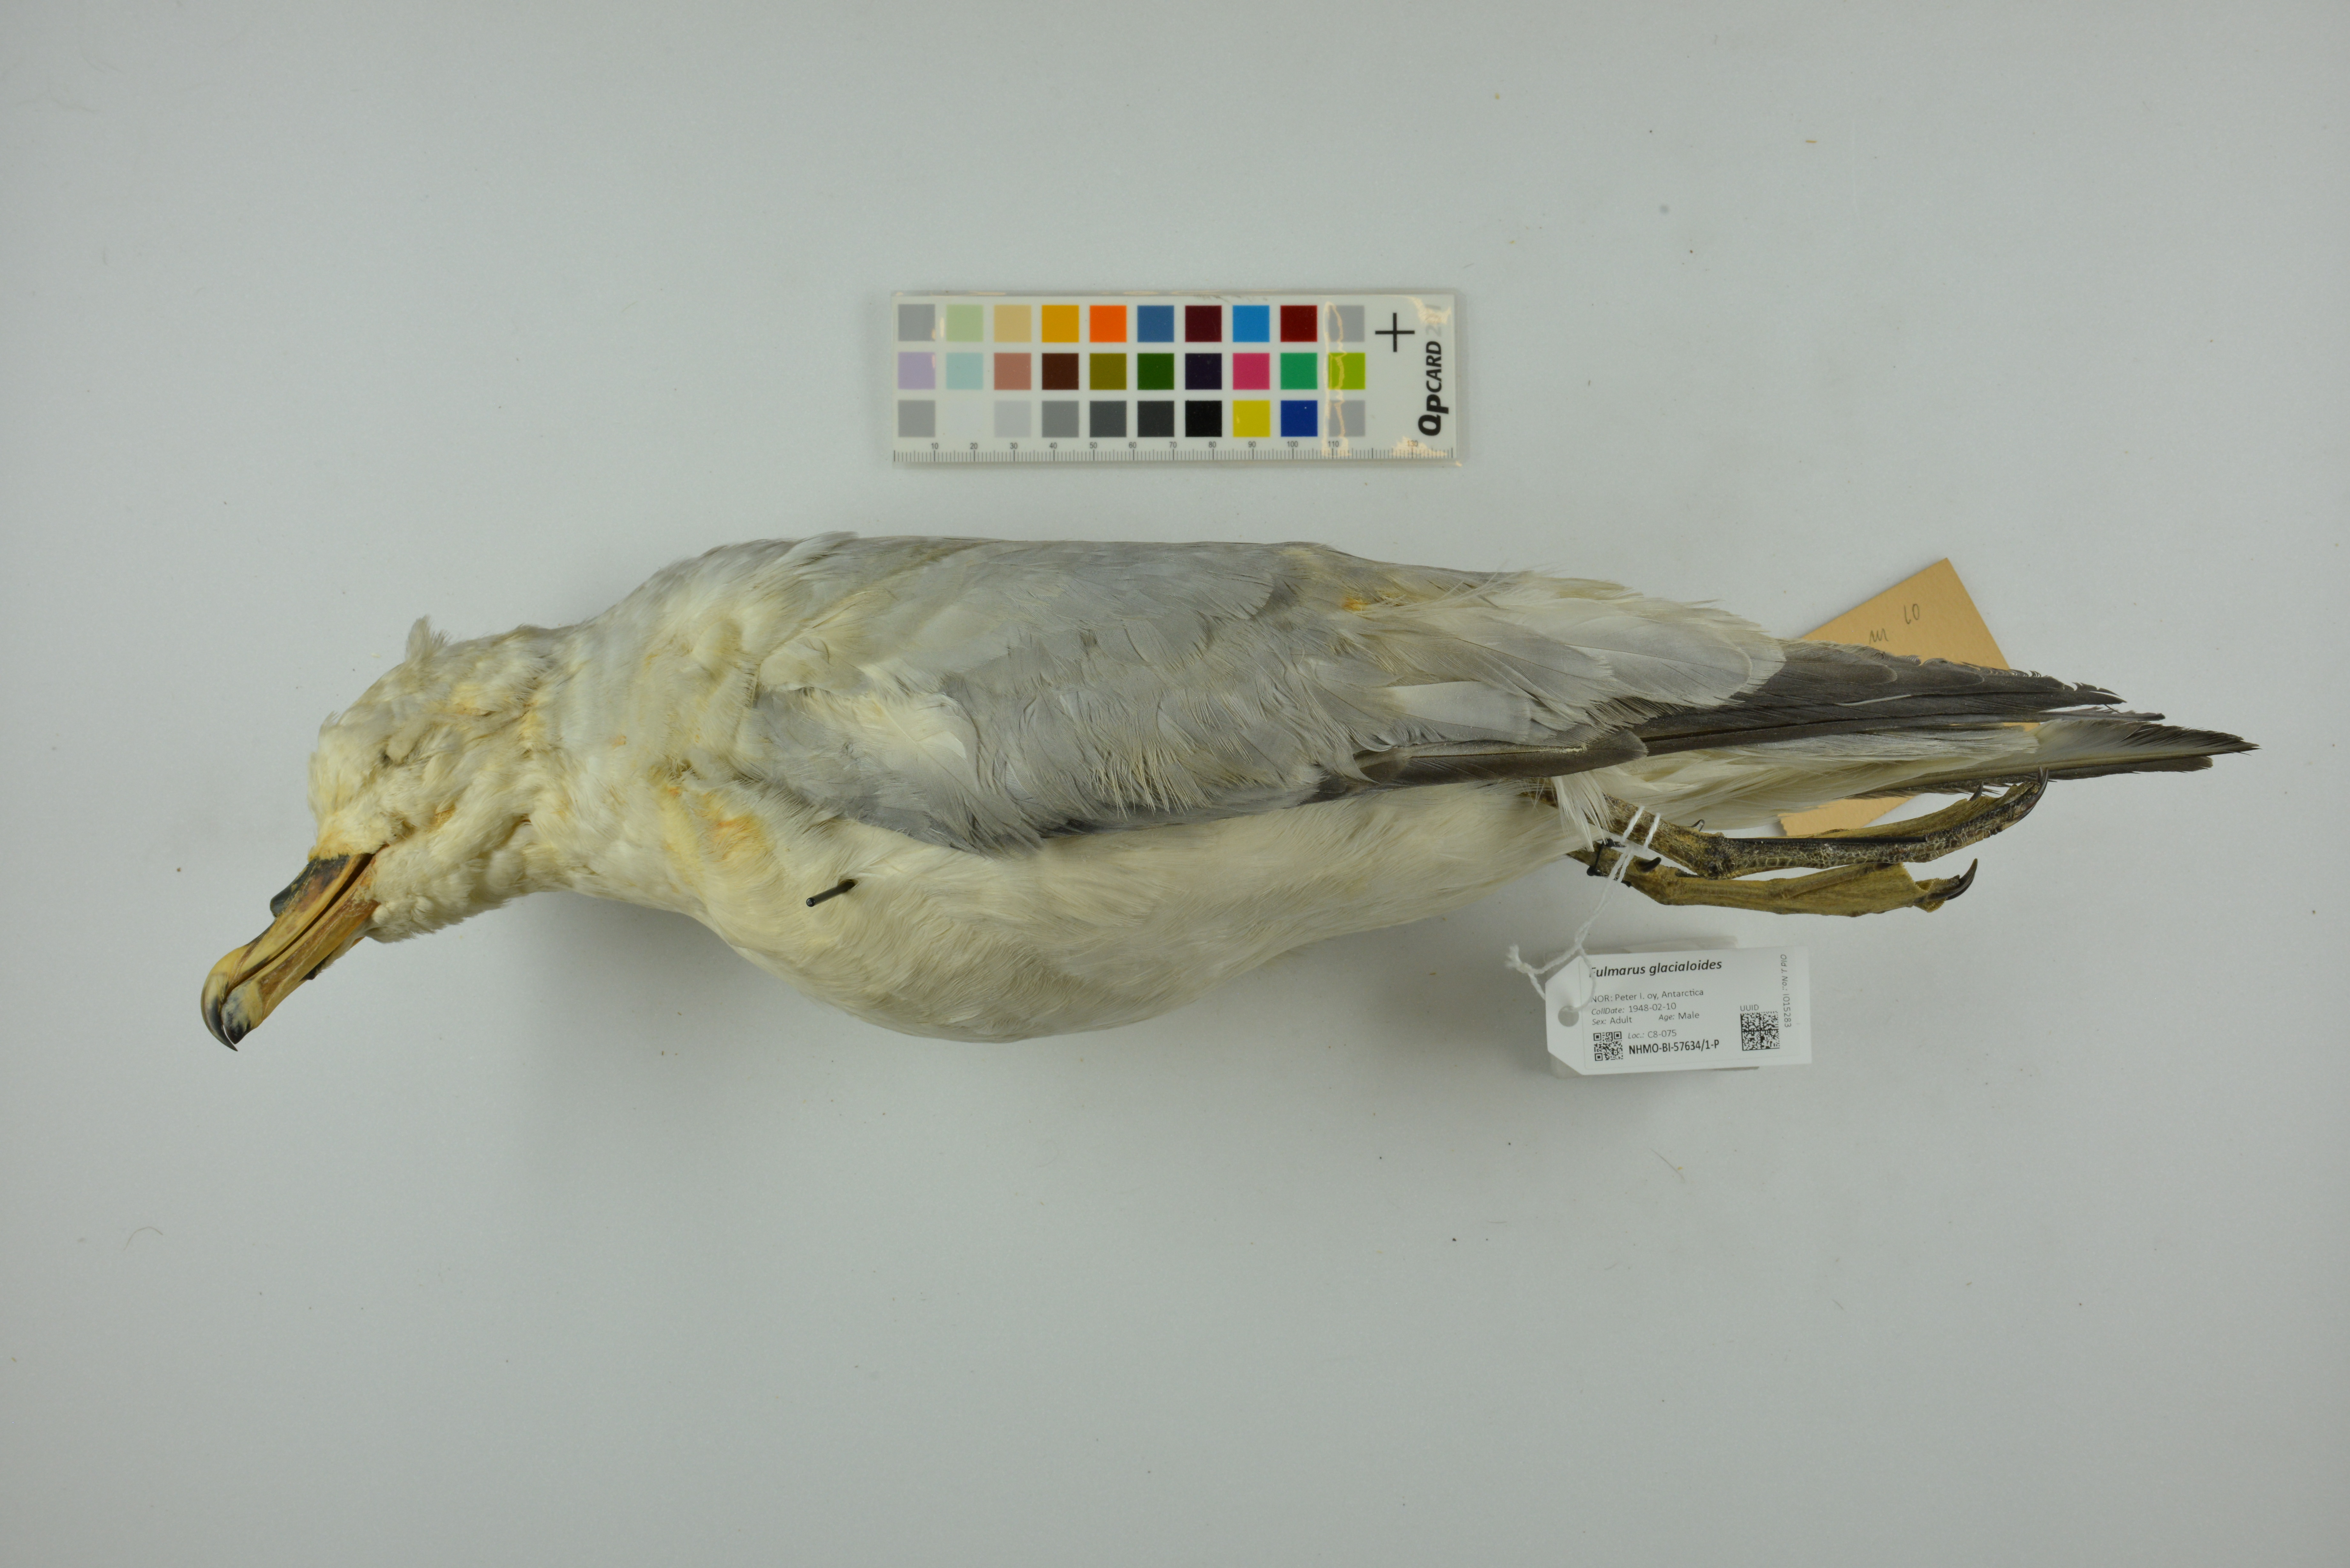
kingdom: Animalia
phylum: Chordata
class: Aves
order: Procellariiformes
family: Procellariidae
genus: Fulmarus
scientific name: Fulmarus glacialoides
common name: Southern fulmar
